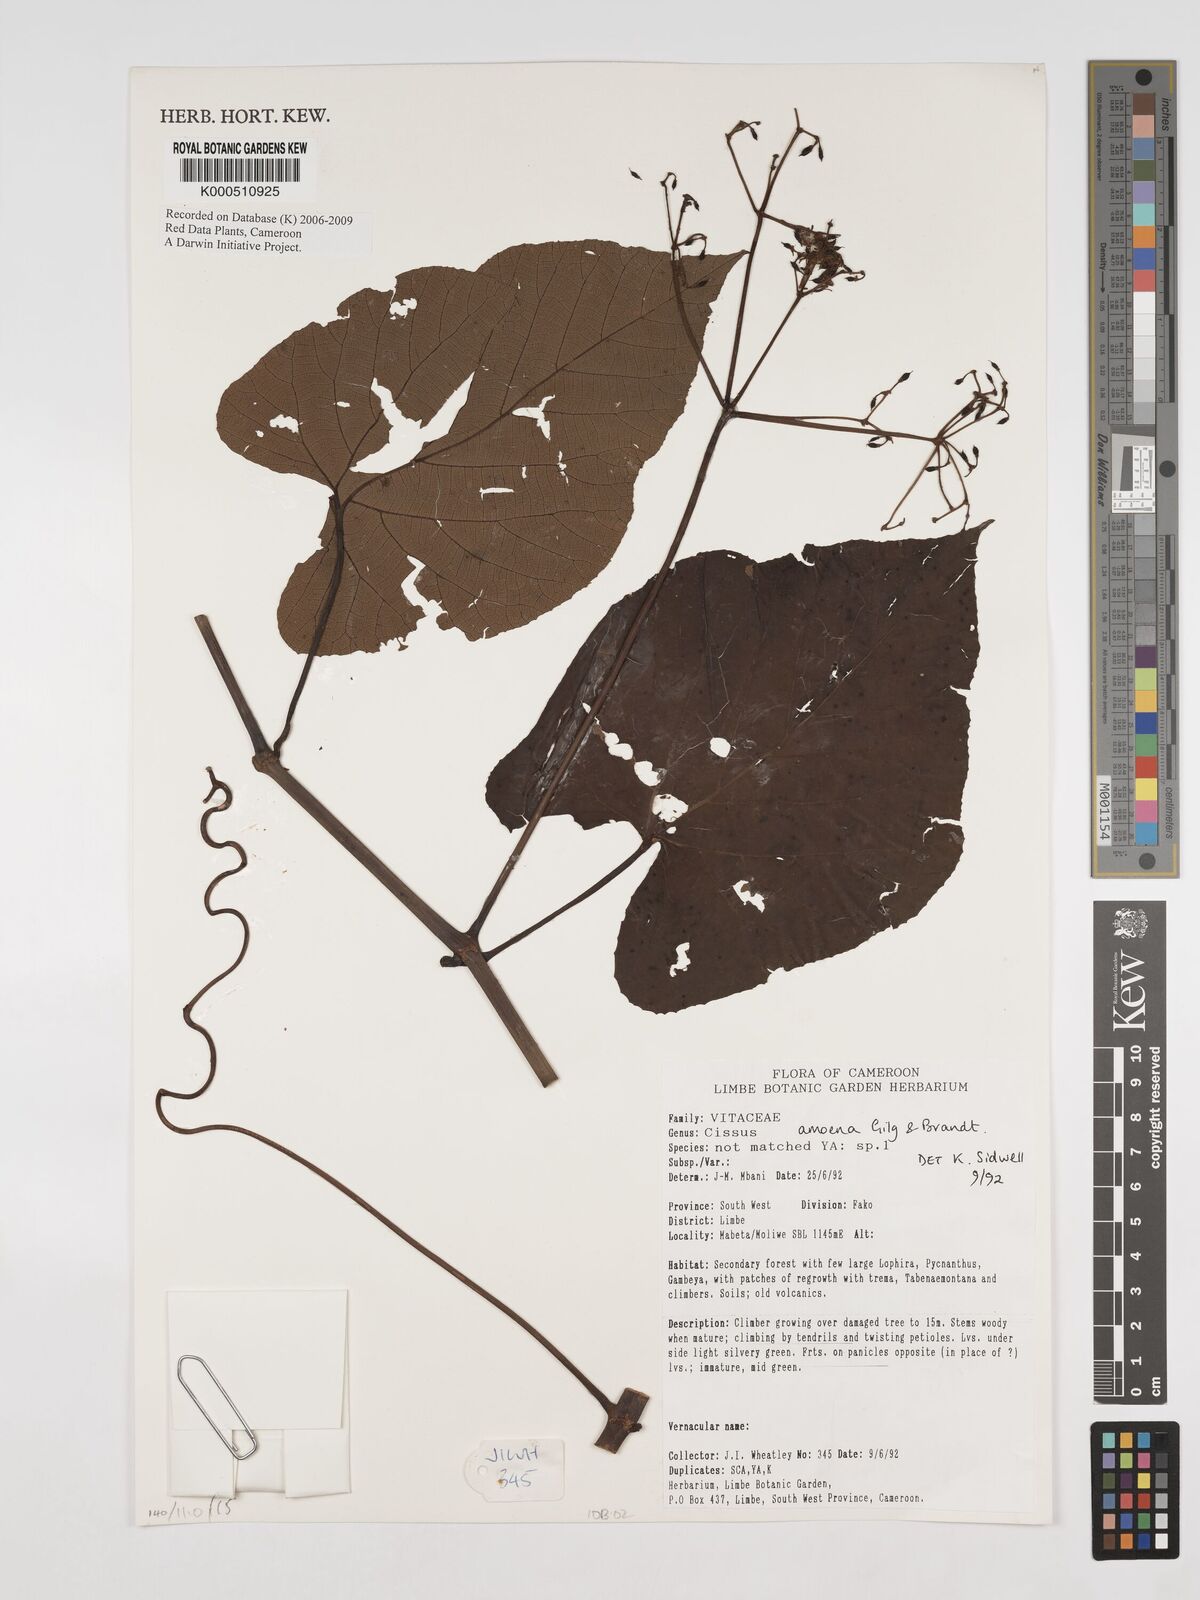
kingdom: Plantae
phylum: Tracheophyta
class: Magnoliopsida
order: Vitales
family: Vitaceae
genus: Cissus
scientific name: Cissus amoena
